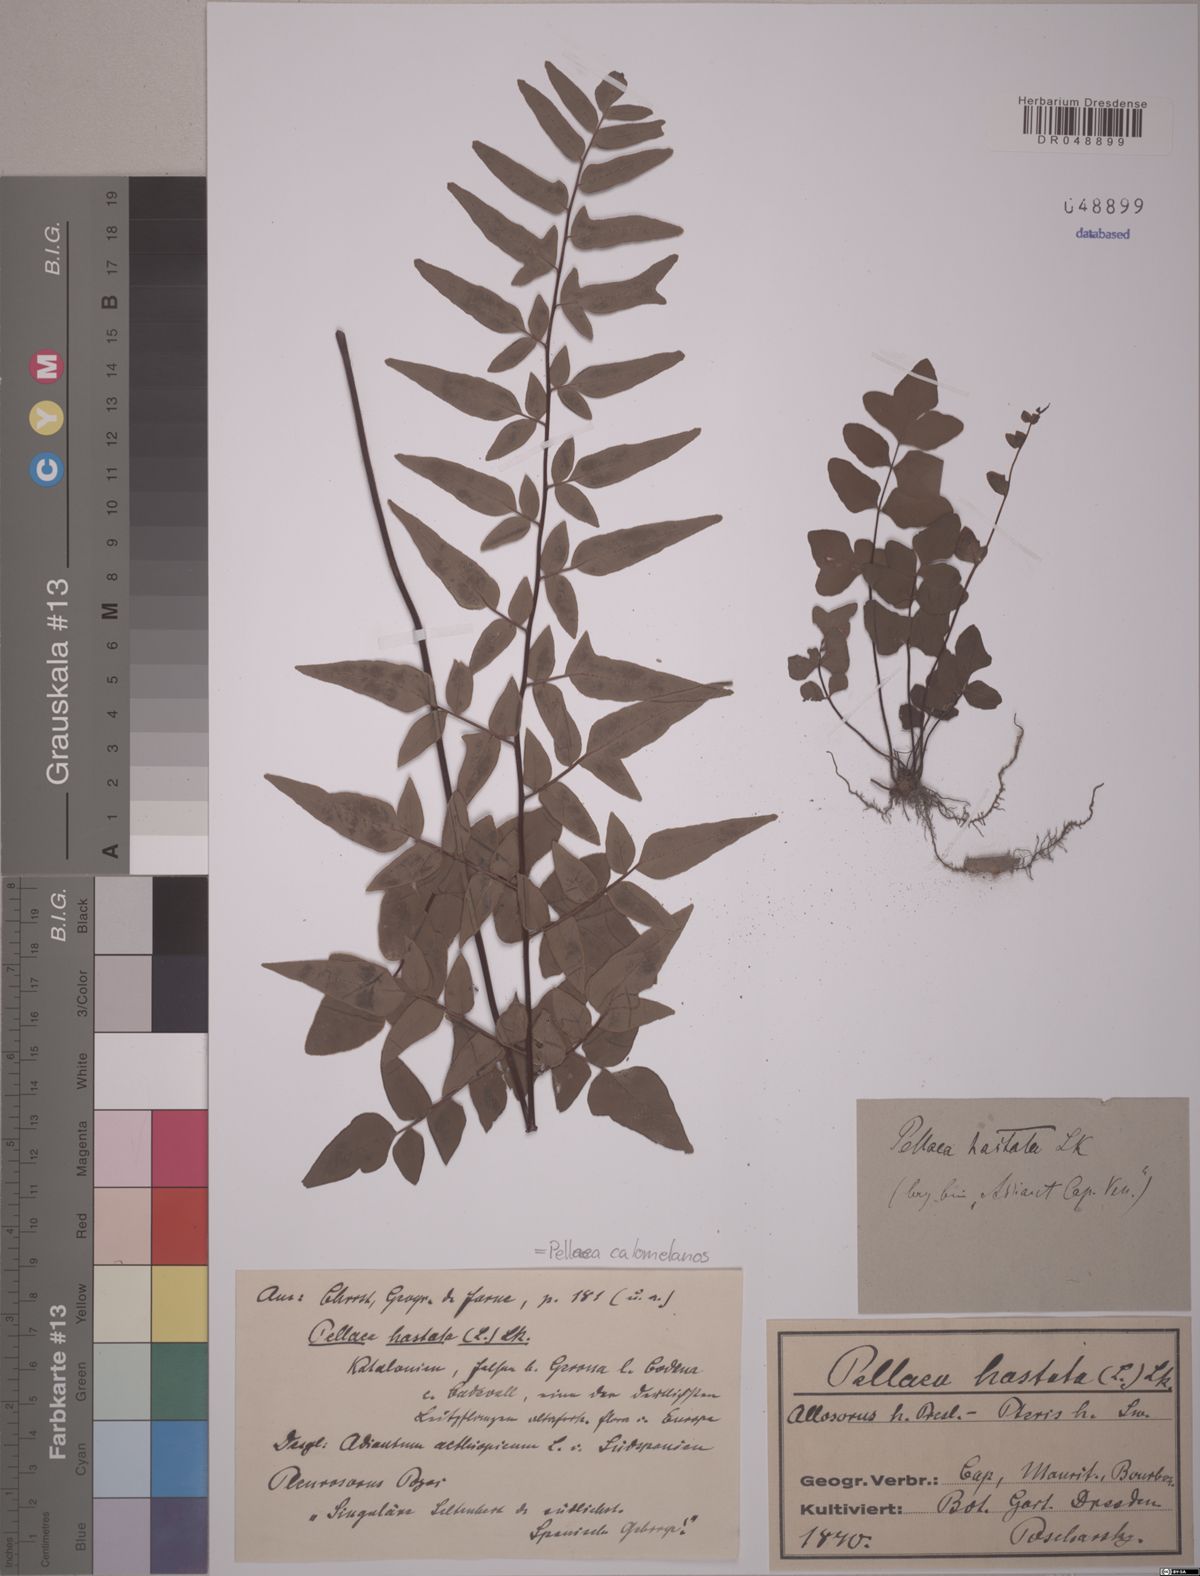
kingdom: Plantae
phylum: Tracheophyta
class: Polypodiopsida
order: Polypodiales
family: Pteridaceae
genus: Pellaea
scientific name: Pellaea calomelanos
